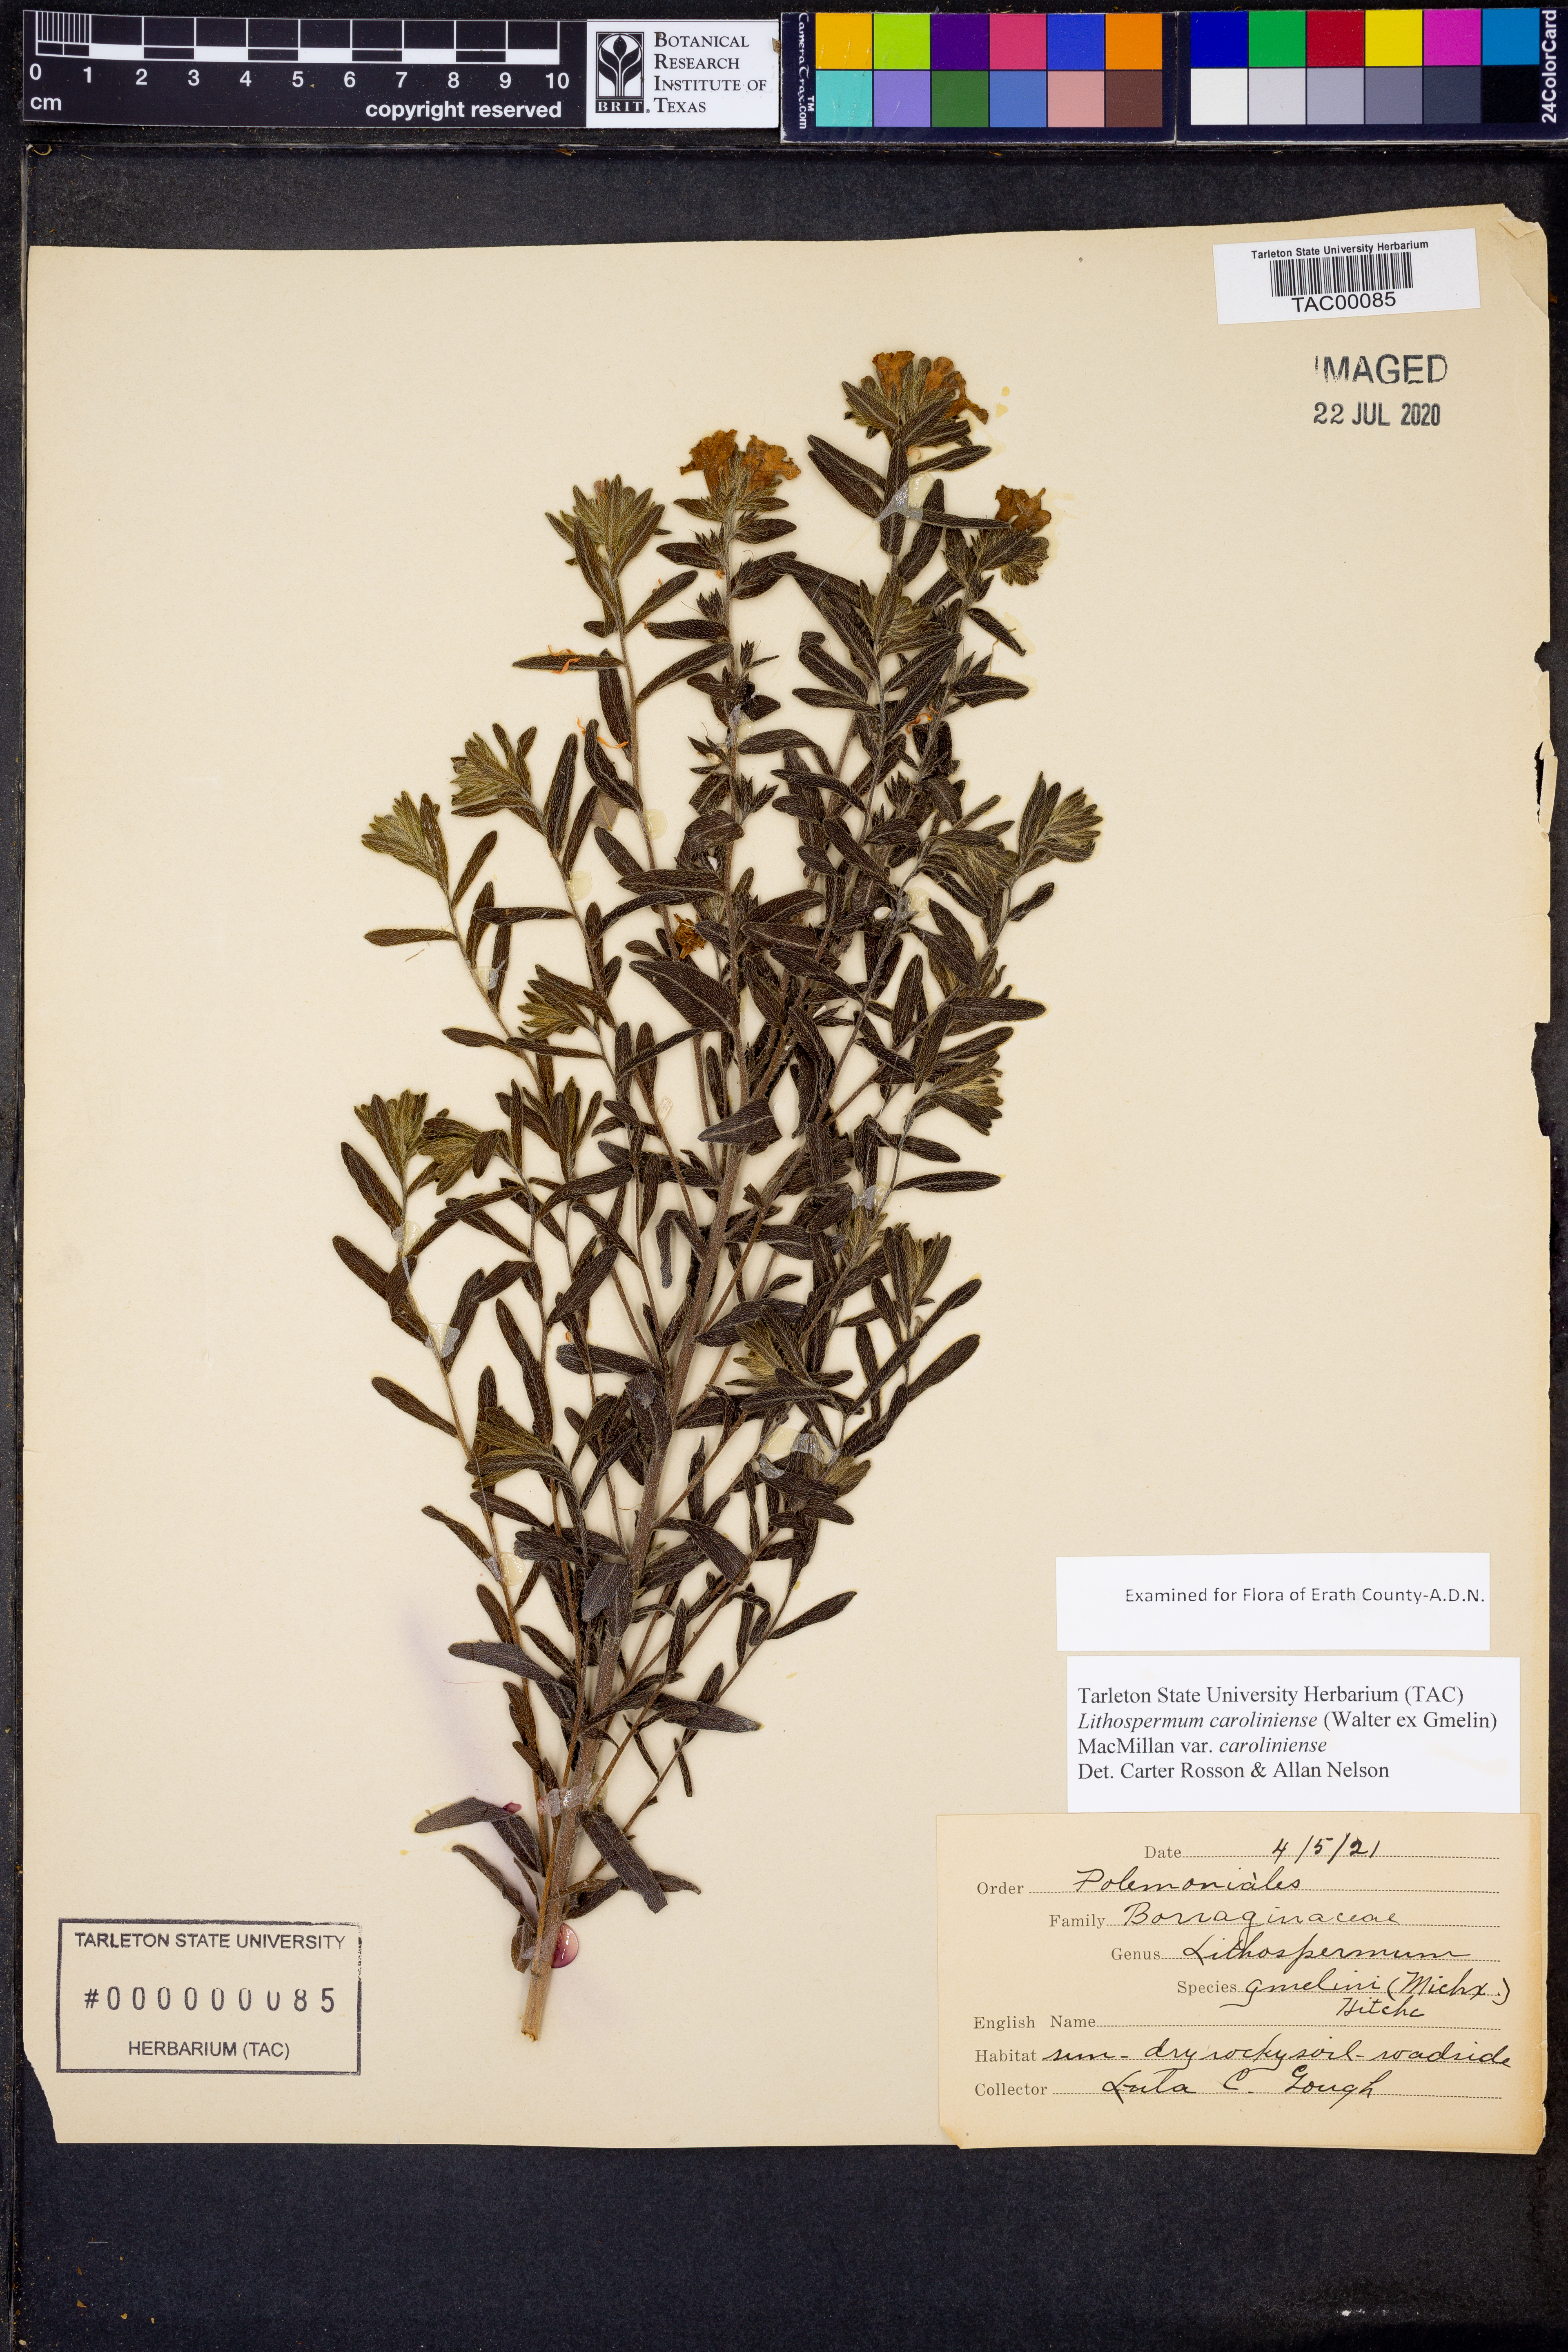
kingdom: Plantae
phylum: Tracheophyta
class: Magnoliopsida
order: Boraginales
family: Boraginaceae
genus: Lithospermum
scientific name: Lithospermum caroliniense
